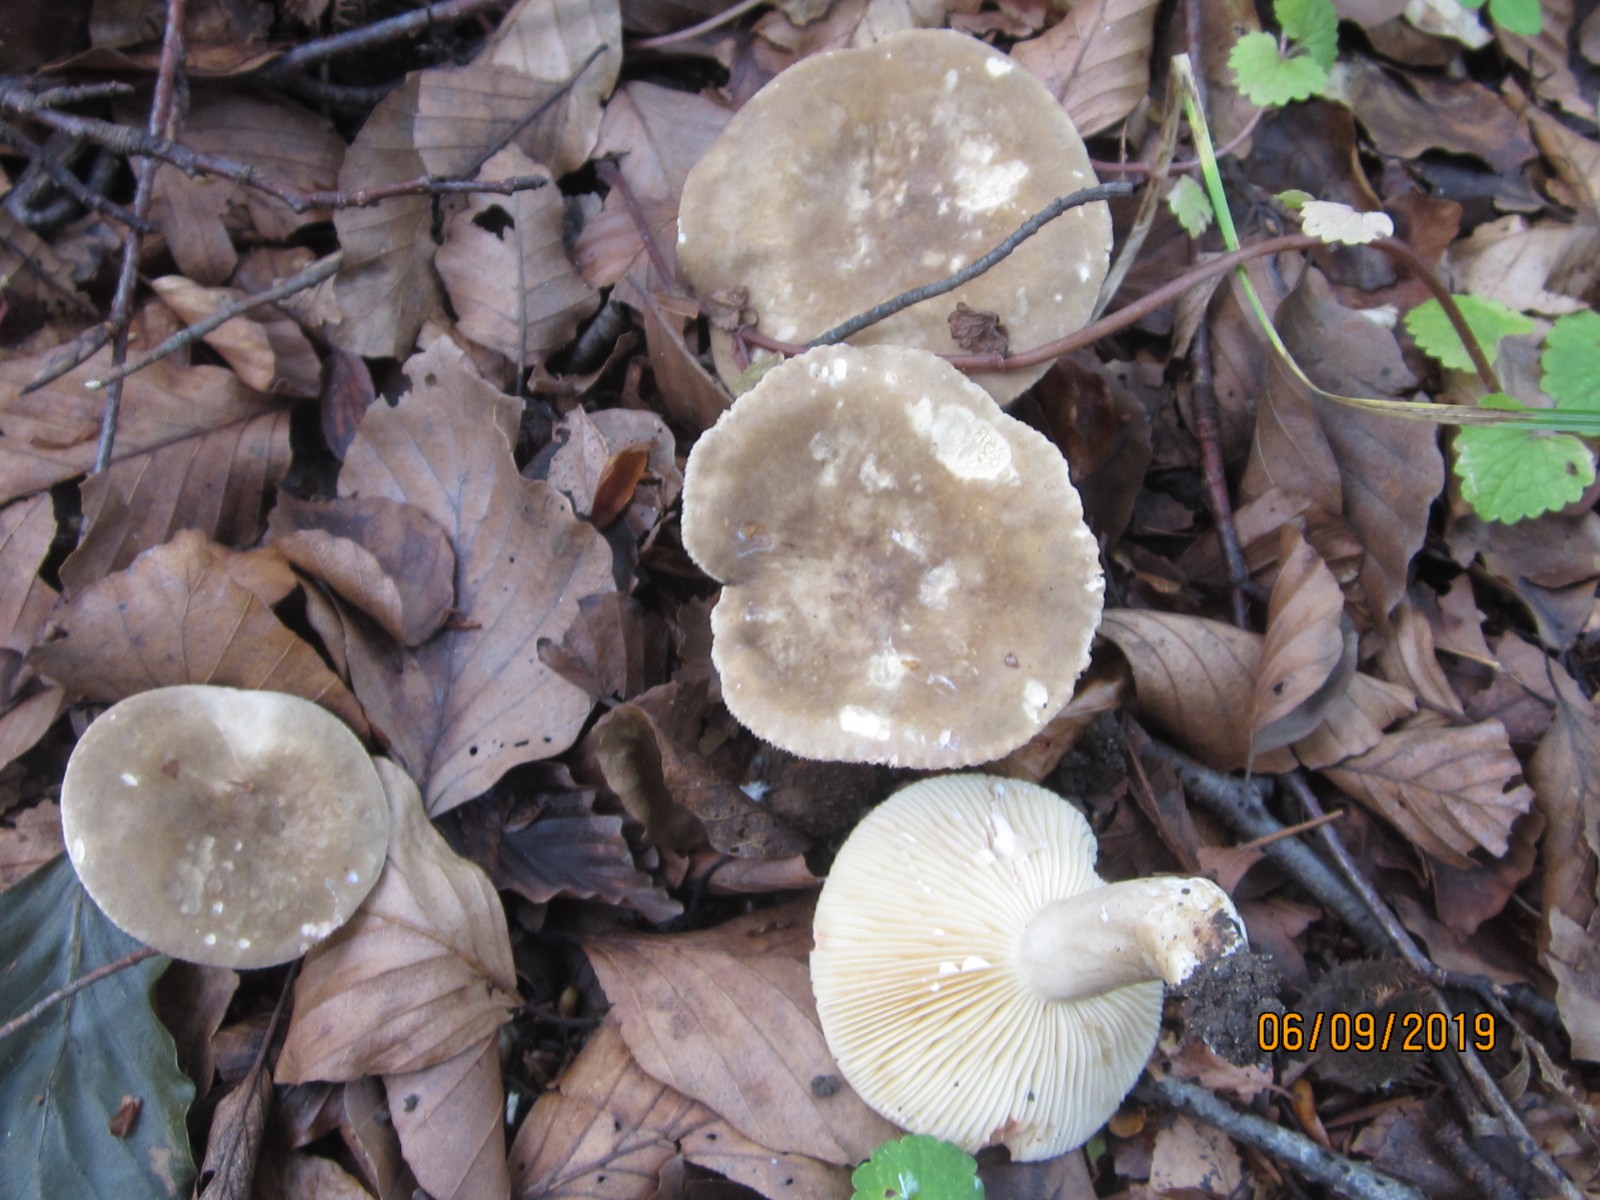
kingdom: Fungi
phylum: Basidiomycota
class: Agaricomycetes
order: Russulales
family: Russulaceae
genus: Lactarius
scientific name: Lactarius ruginosus
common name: gråbrun mælkehat
